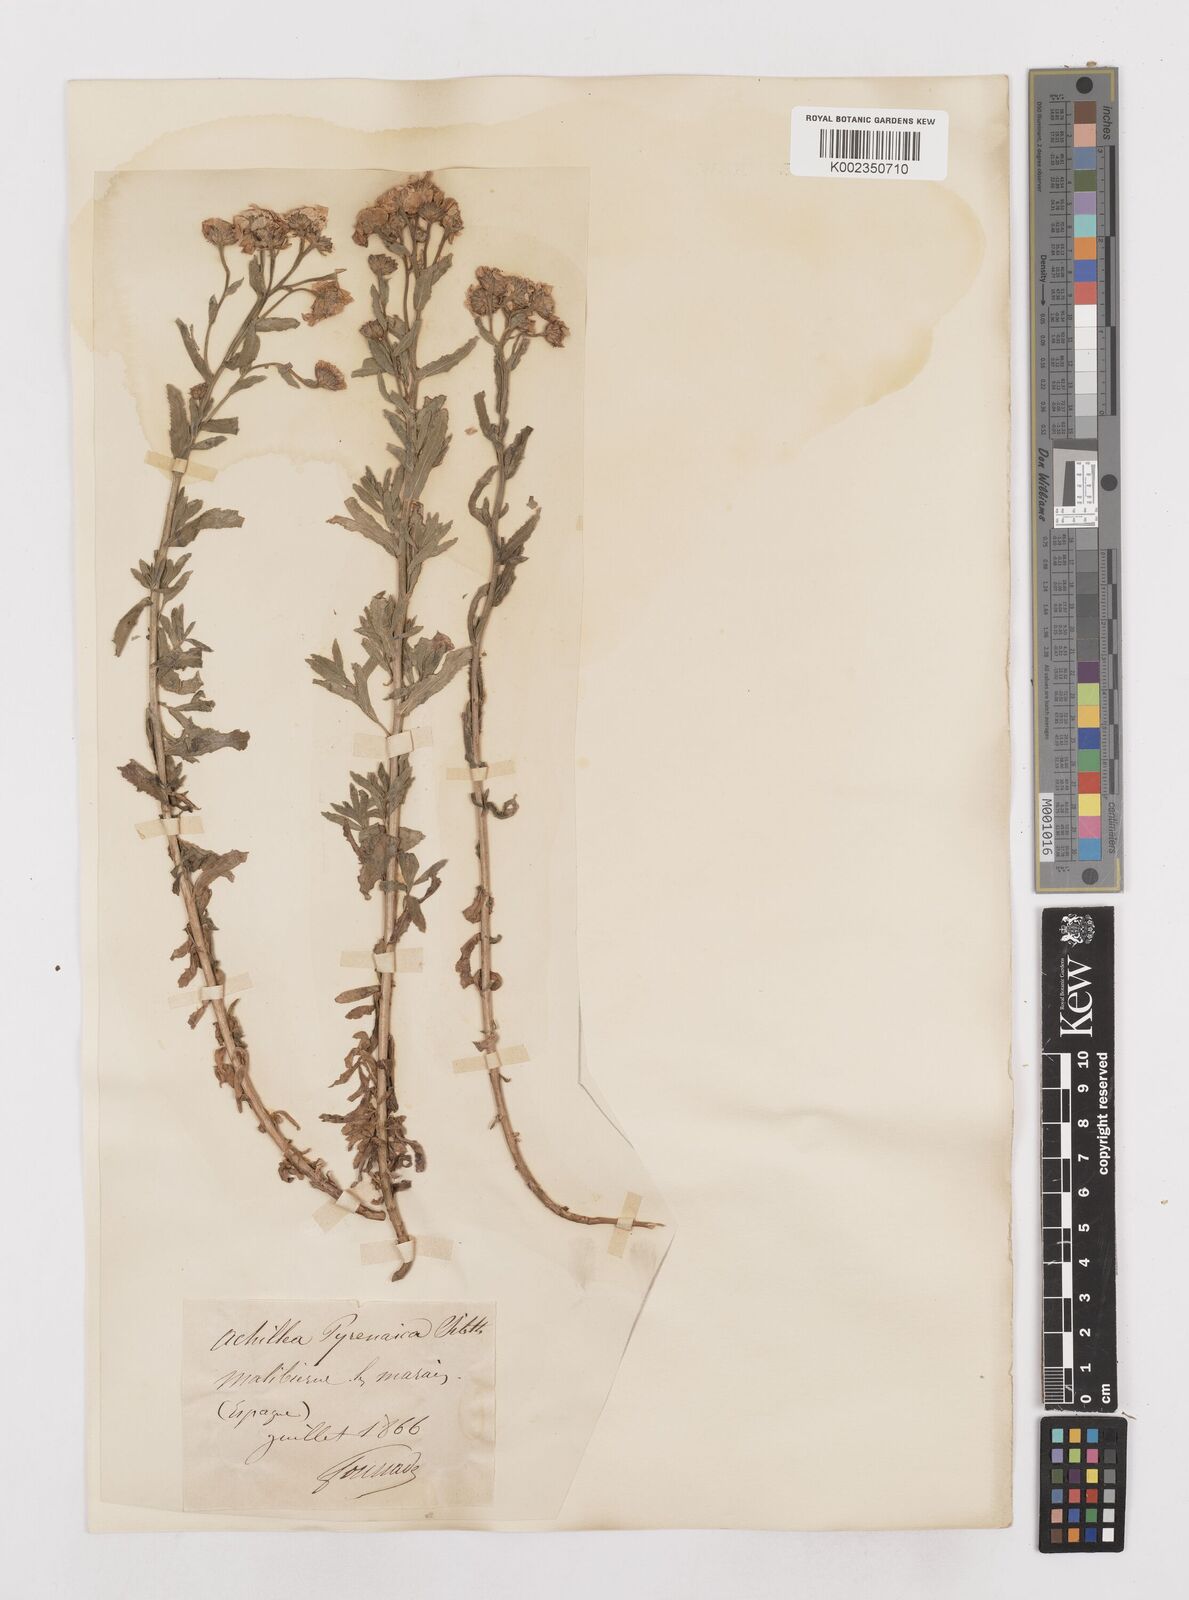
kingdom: Plantae
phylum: Tracheophyta
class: Magnoliopsida
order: Asterales
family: Asteraceae
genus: Achillea
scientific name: Achillea pyrenaica
